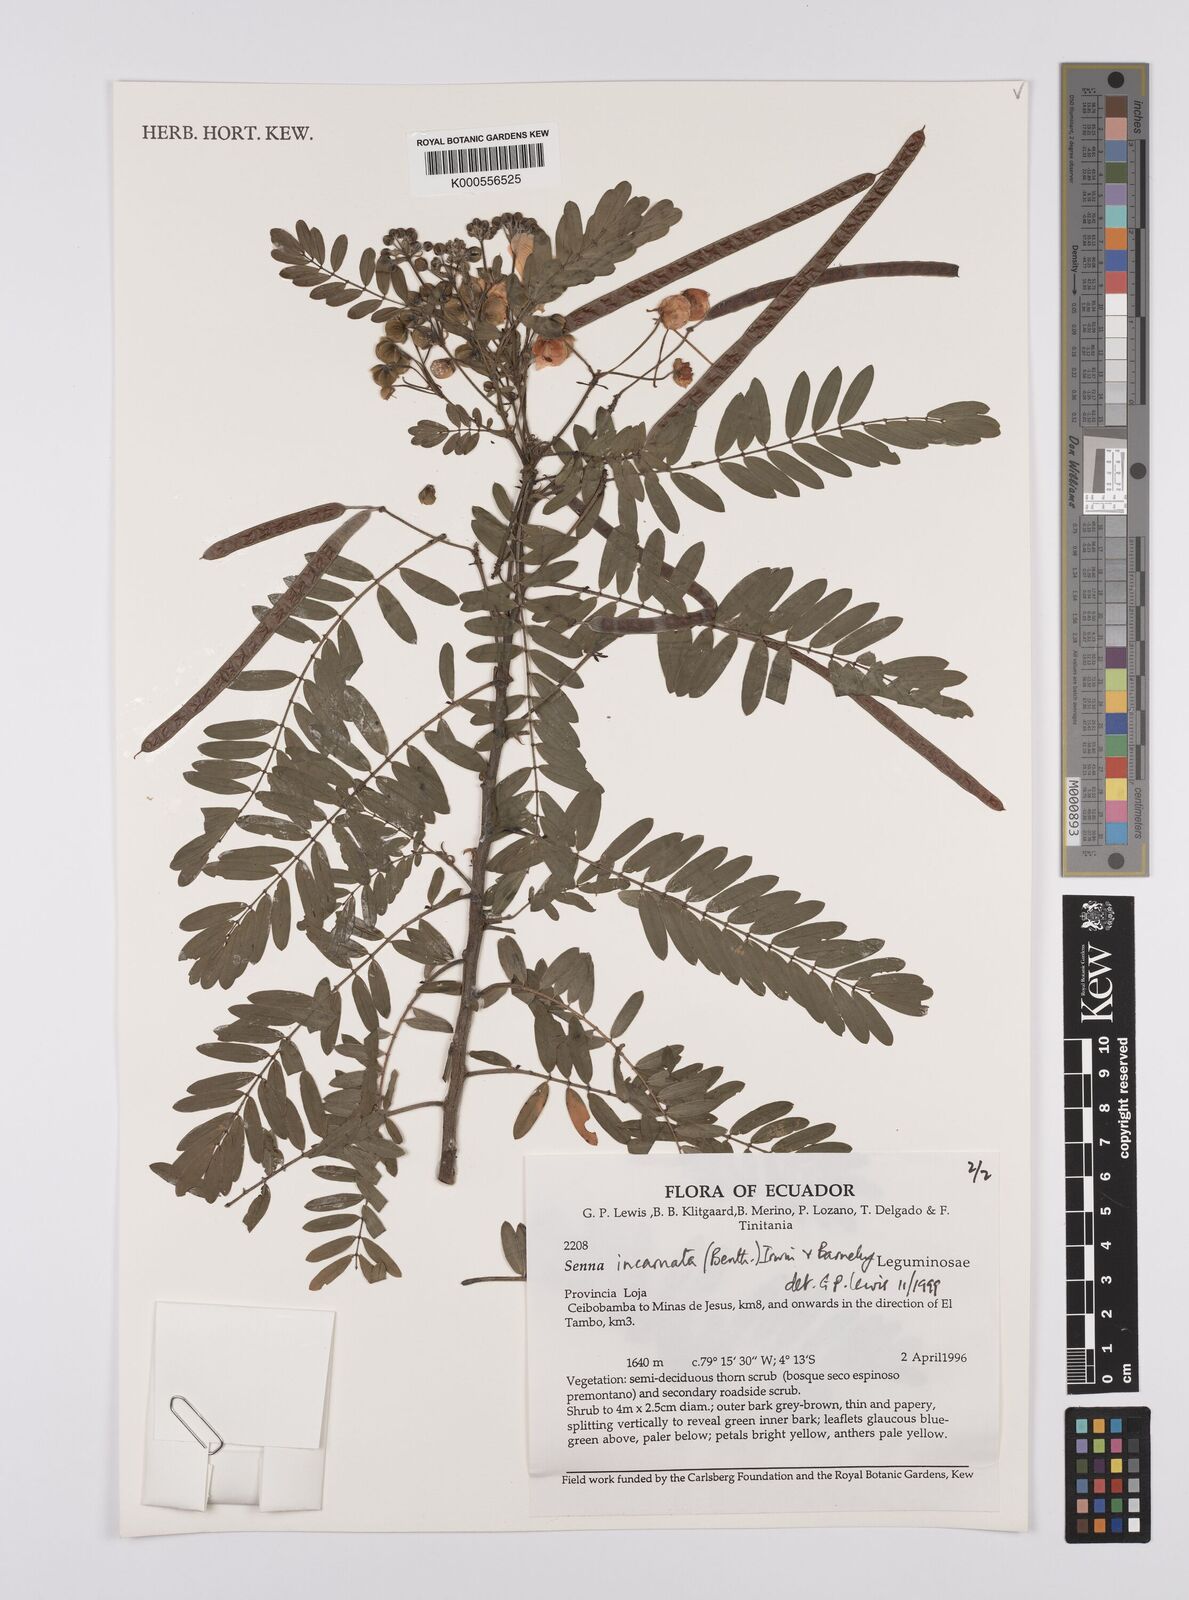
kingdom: Plantae
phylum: Tracheophyta
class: Magnoliopsida
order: Fabales
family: Fabaceae
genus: Senna
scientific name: Senna incarnata
